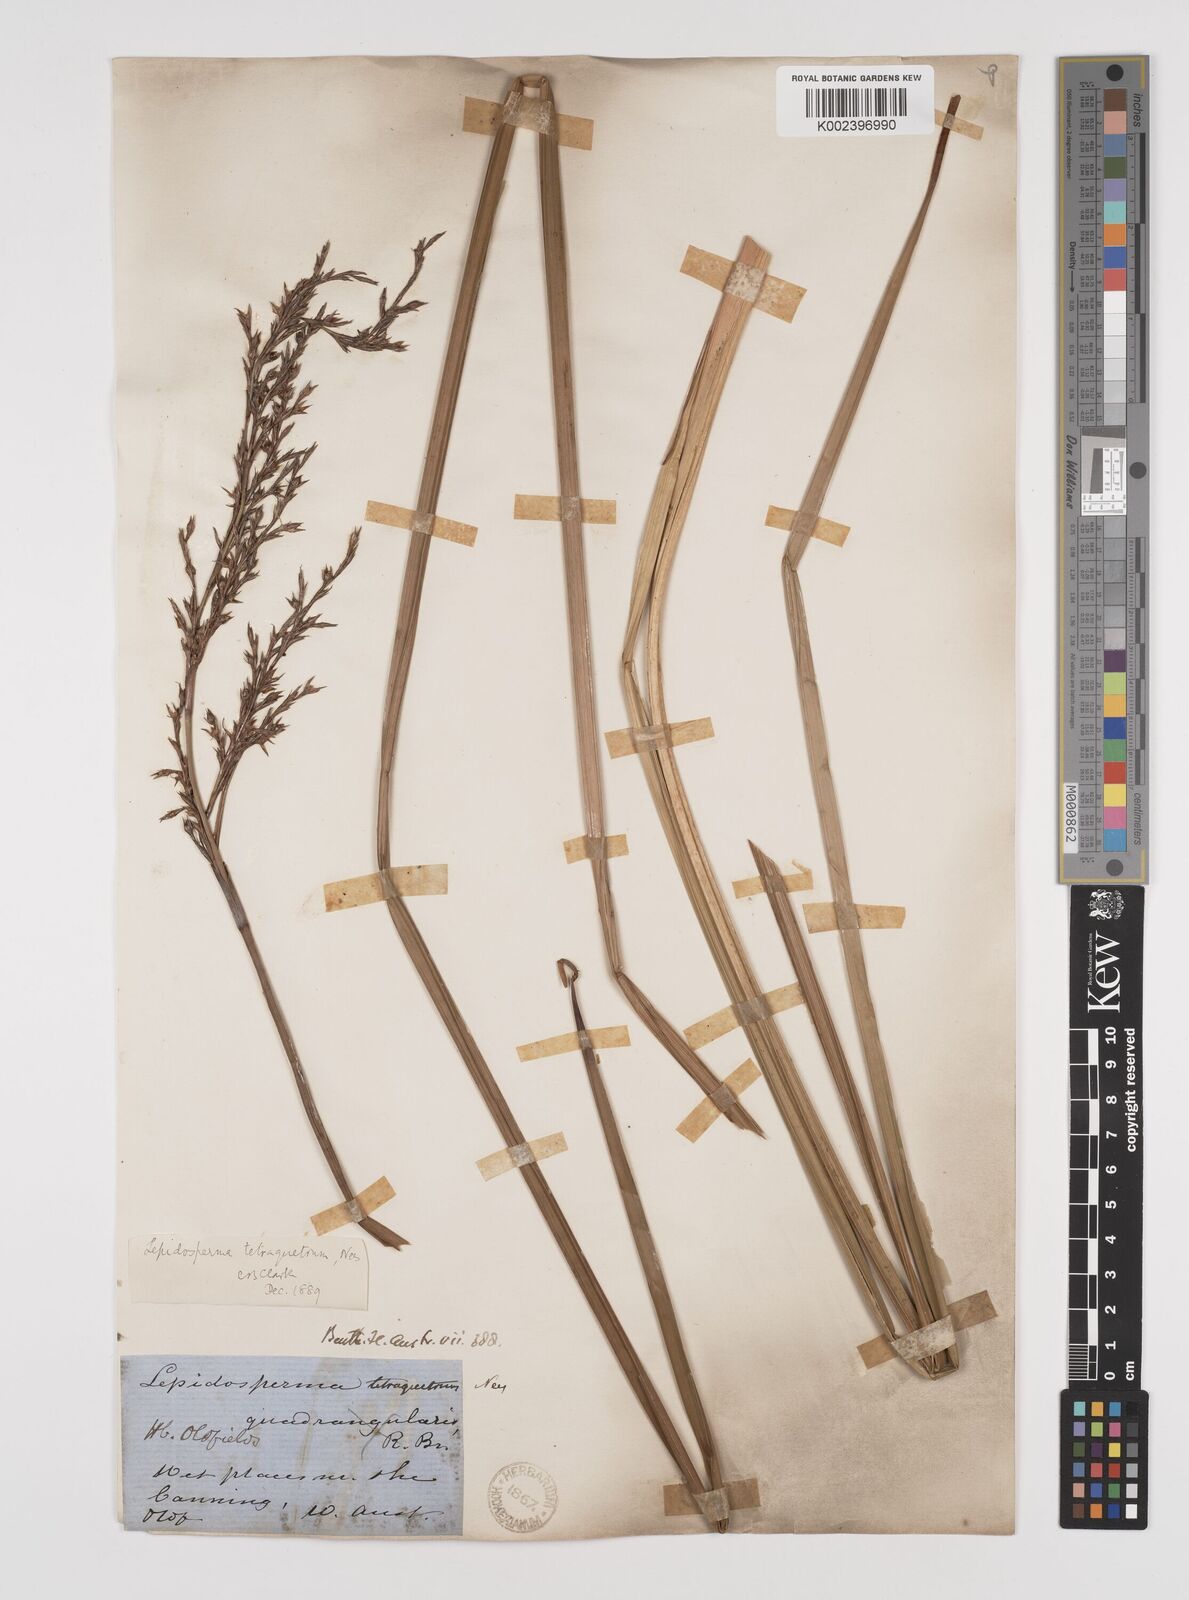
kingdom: Plantae
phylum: Tracheophyta
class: Liliopsida
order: Poales
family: Cyperaceae
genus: Lepidosperma
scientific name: Lepidosperma tetraquetrum
